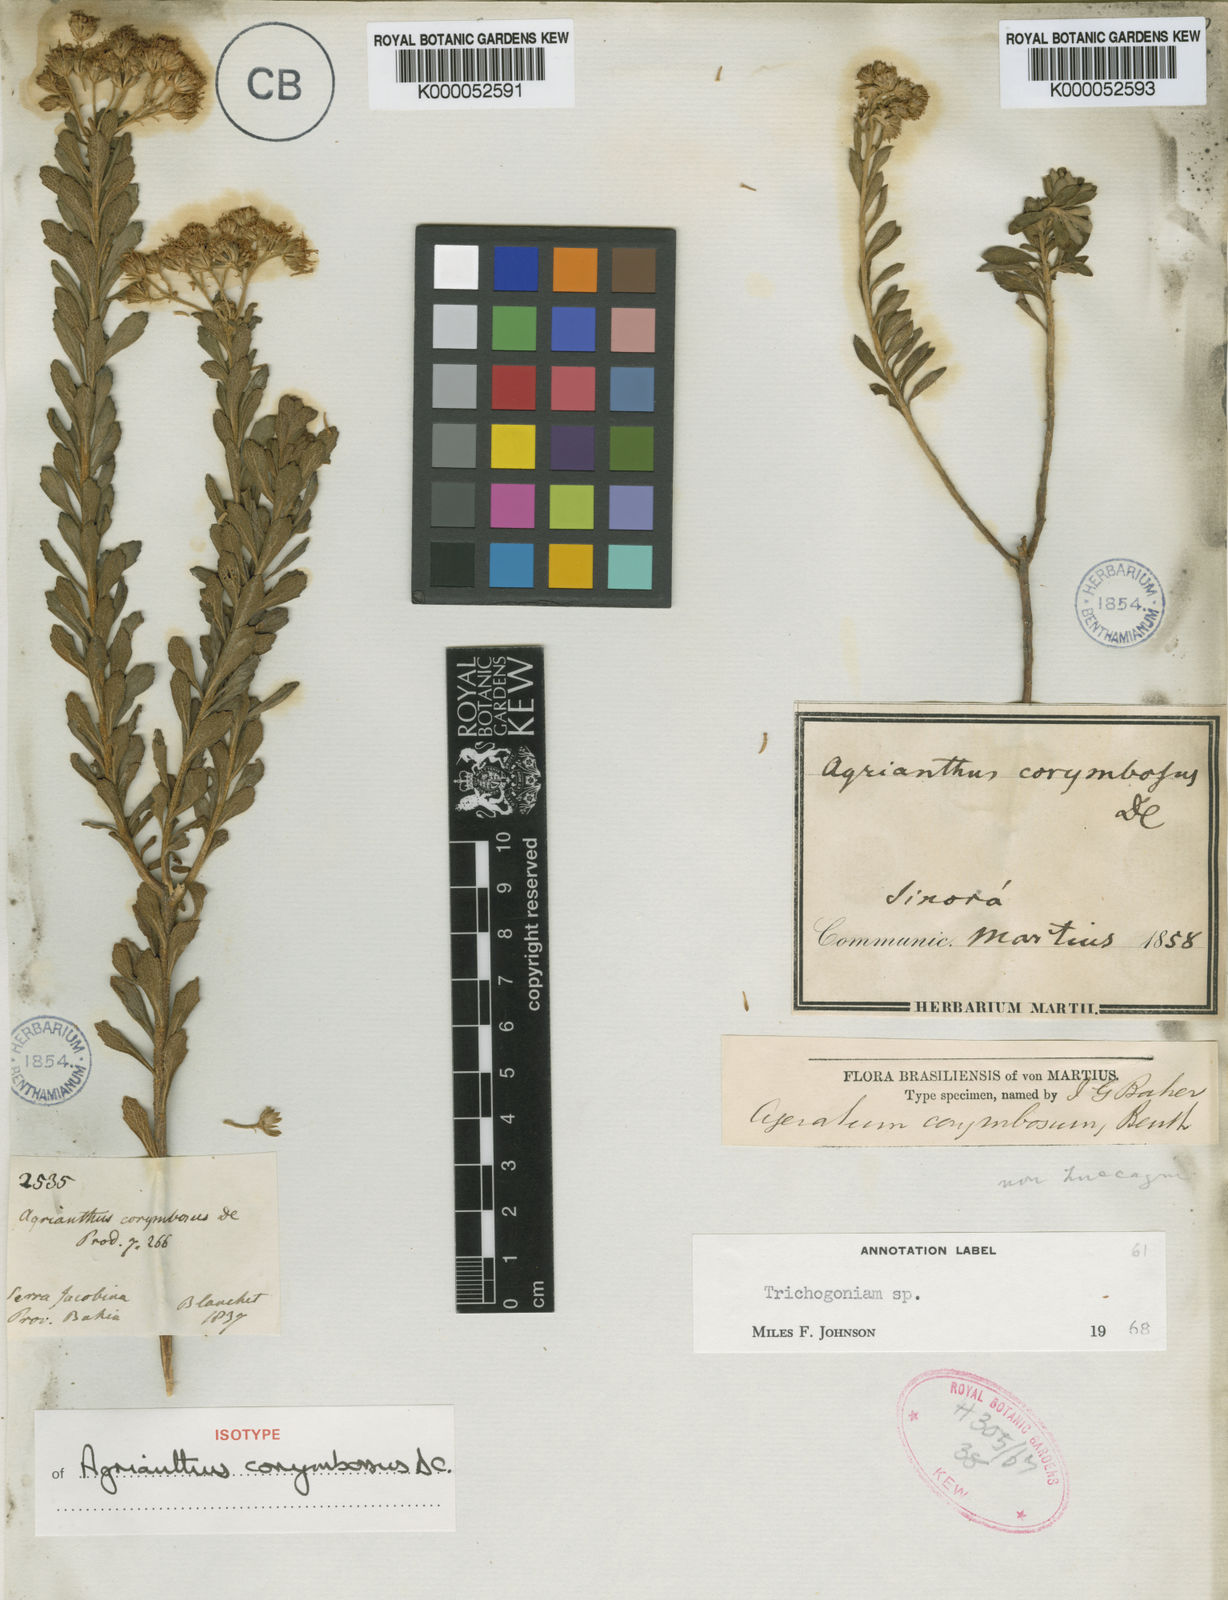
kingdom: Plantae
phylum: Tracheophyta
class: Magnoliopsida
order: Asterales
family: Asteraceae
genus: Stylotrichium
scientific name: Stylotrichium corymbosum
